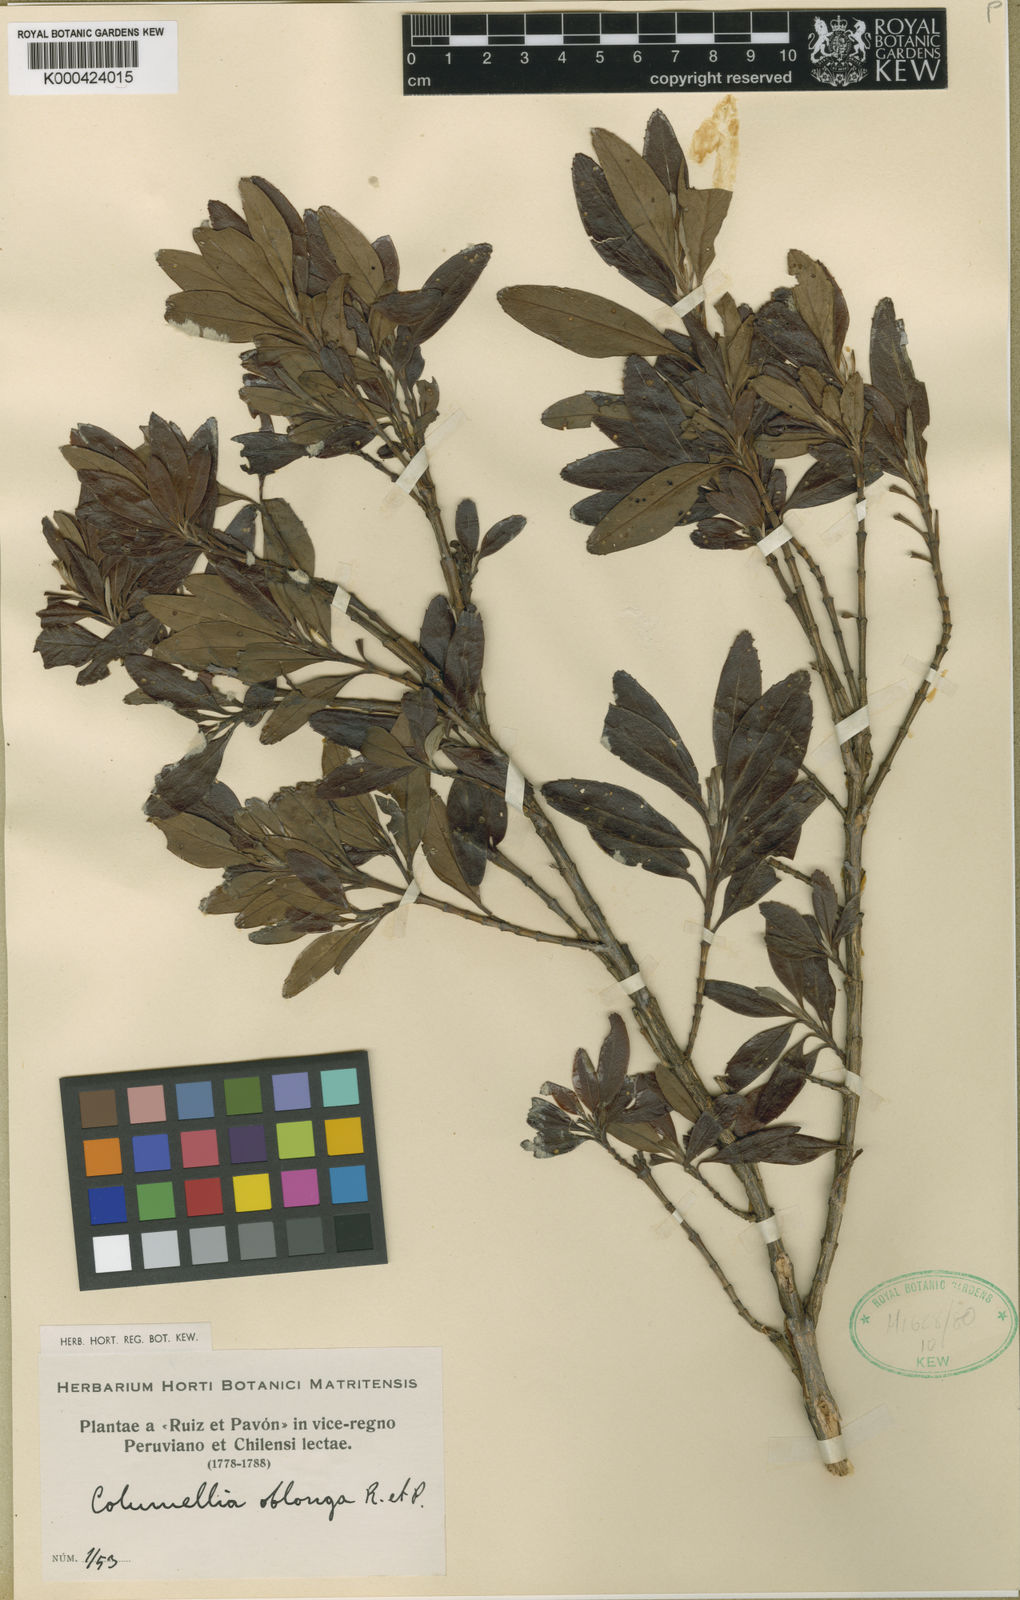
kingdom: Plantae
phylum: Tracheophyta
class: Magnoliopsida
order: Bruniales
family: Columelliaceae
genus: Columellia
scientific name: Columellia oblonga
